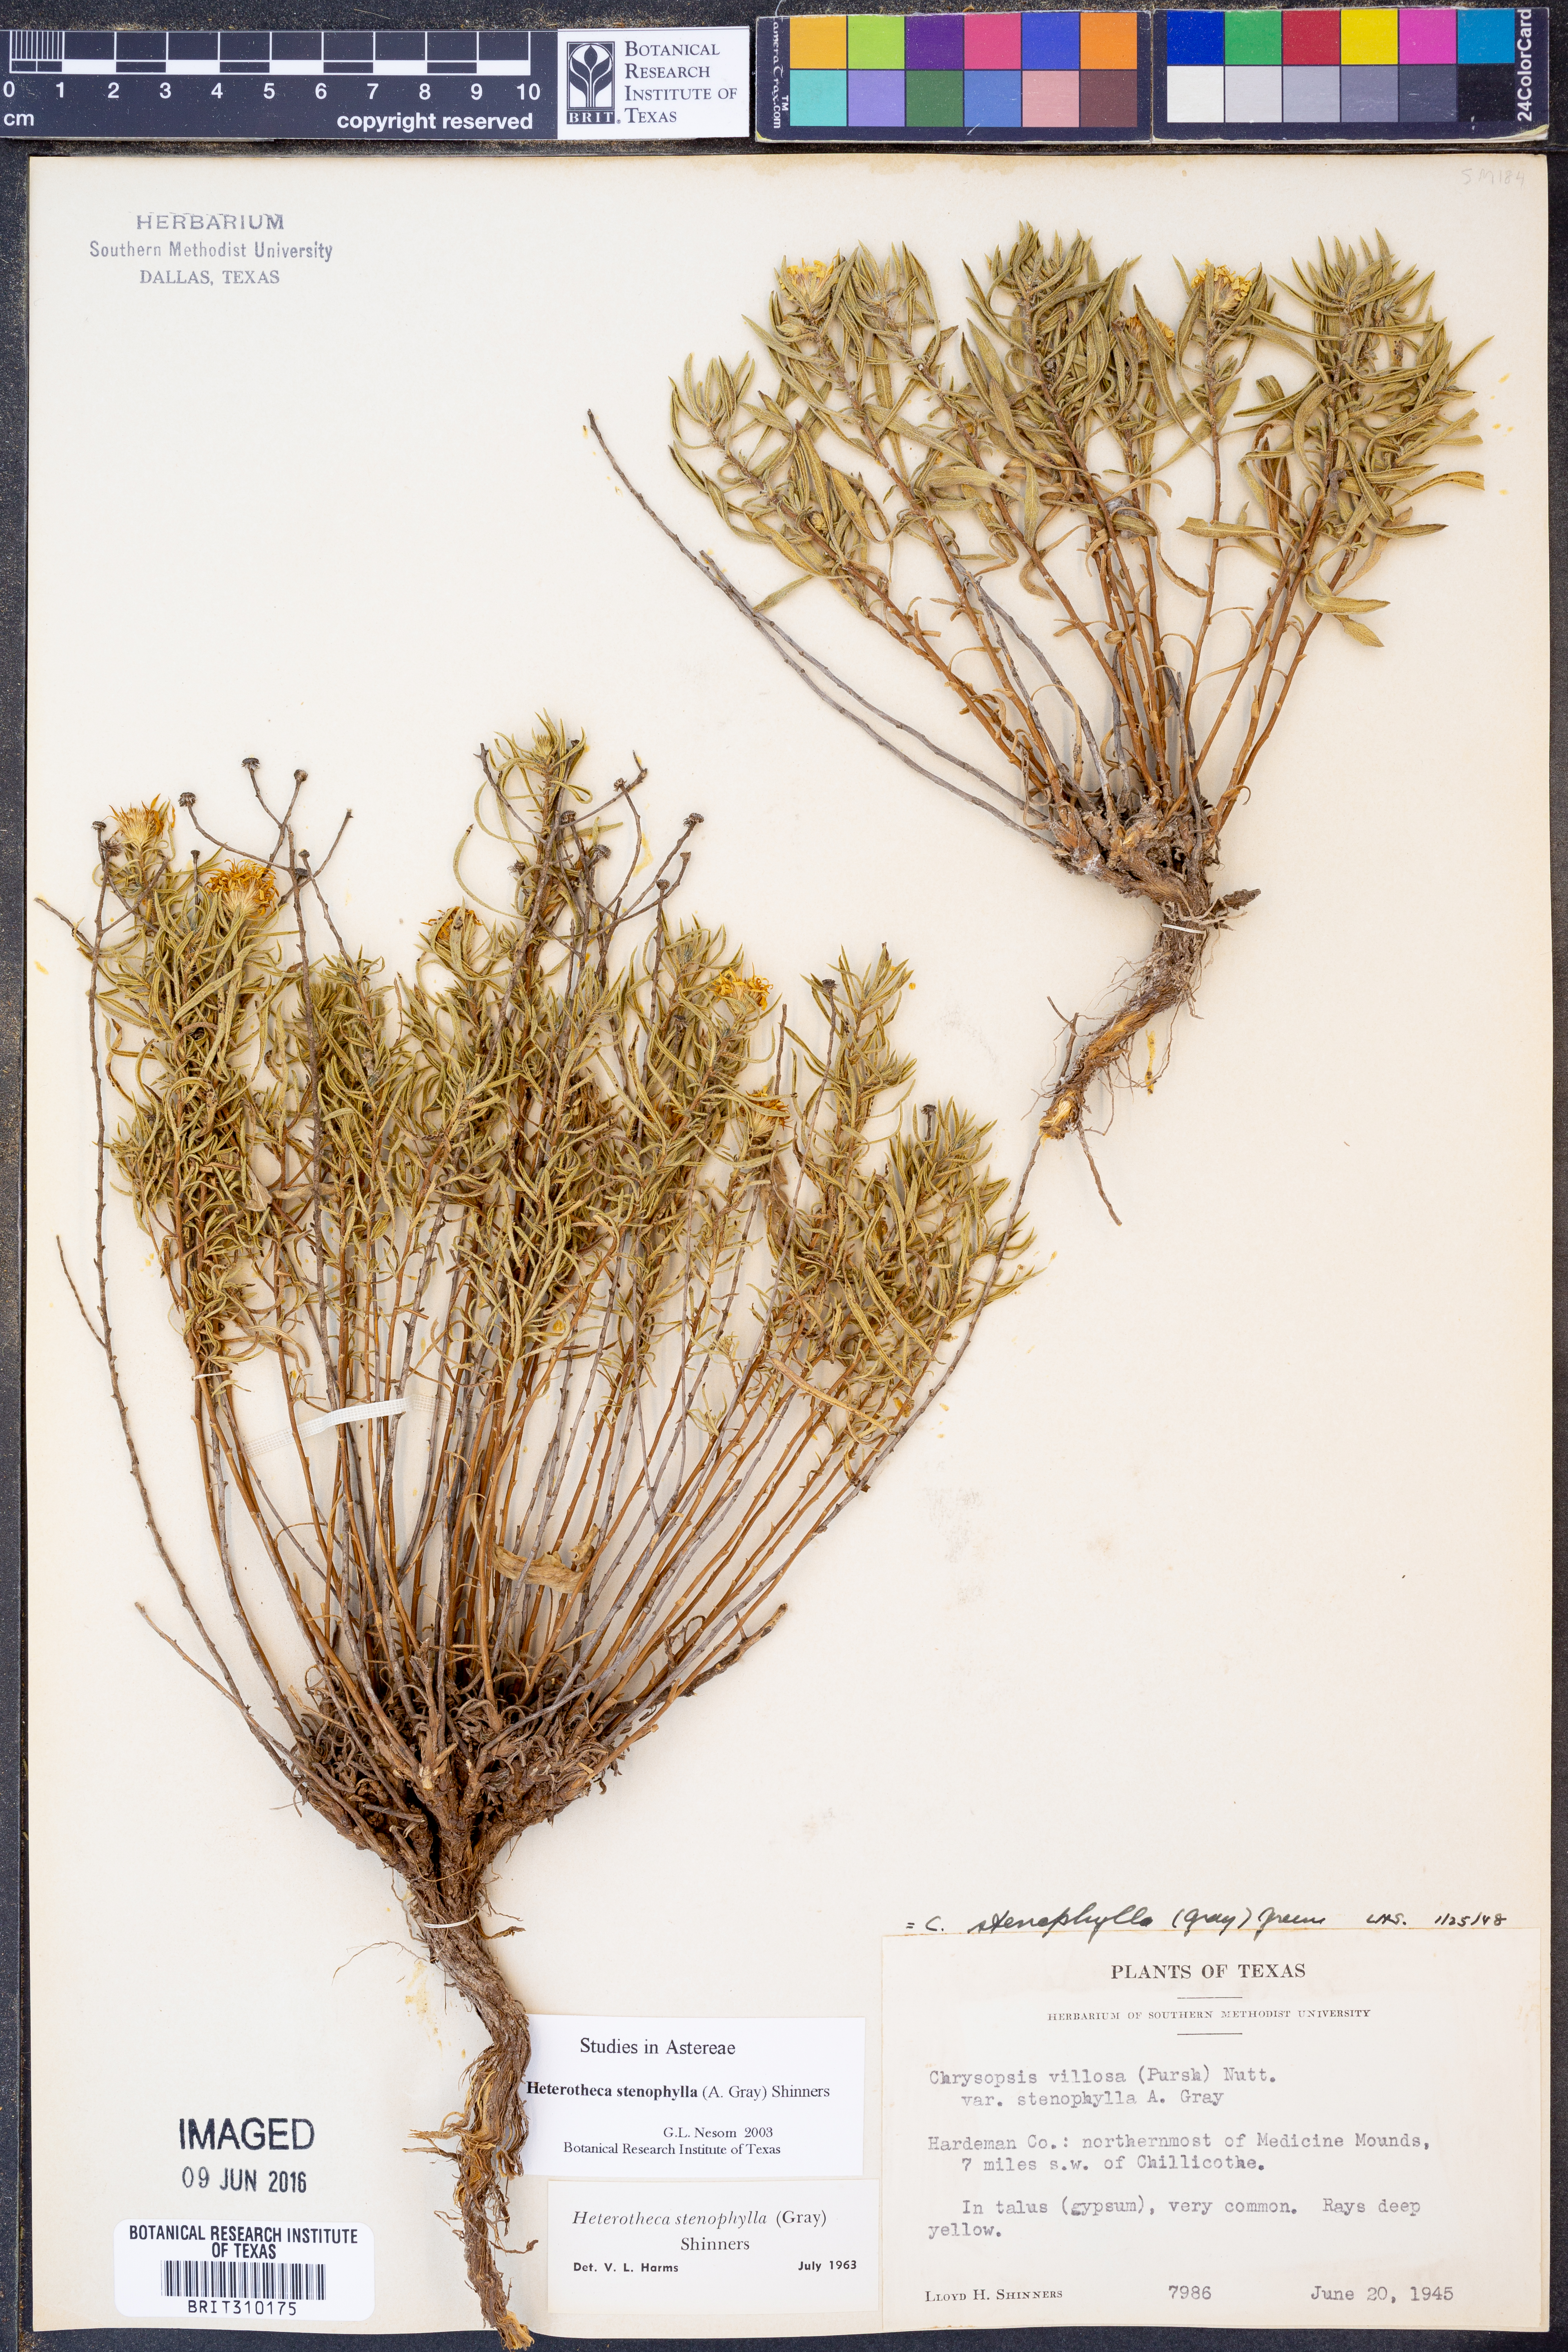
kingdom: Plantae
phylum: Tracheophyta
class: Magnoliopsida
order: Asterales
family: Asteraceae
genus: Heterotheca
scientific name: Heterotheca stenophylla
